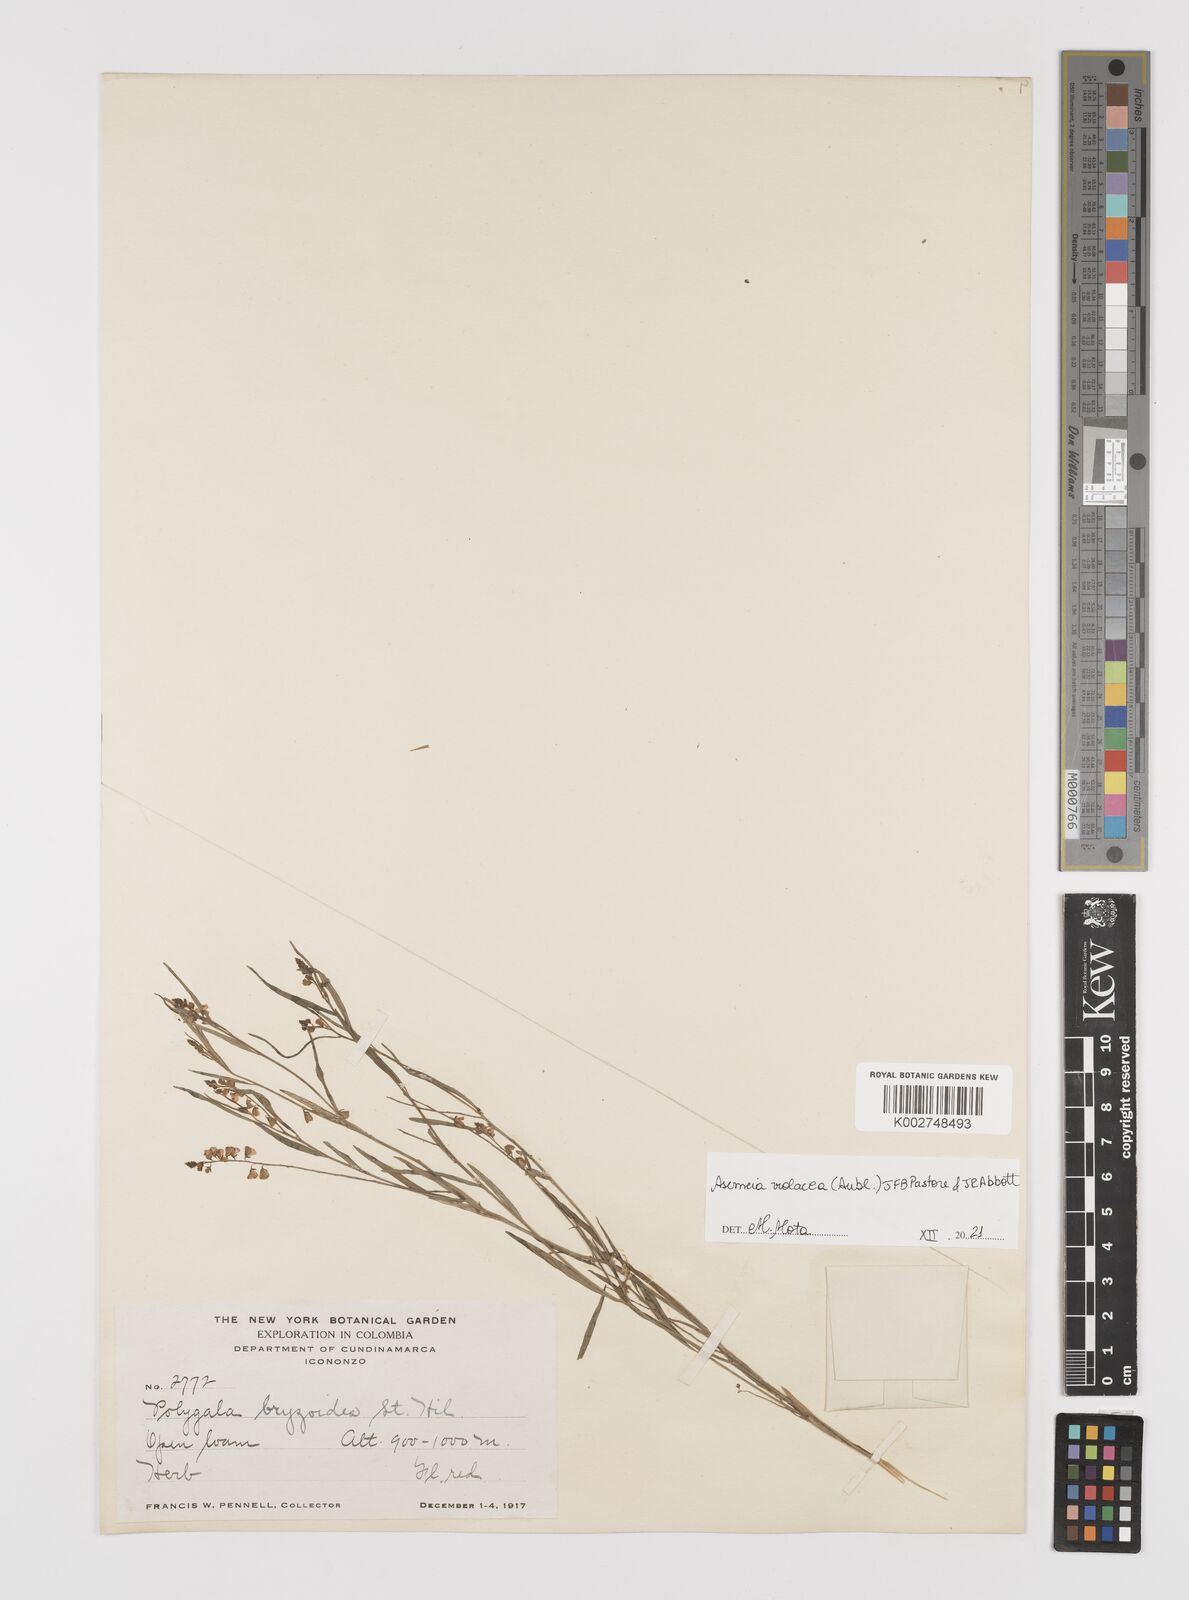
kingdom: Plantae
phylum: Tracheophyta
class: Magnoliopsida
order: Fabales
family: Polygalaceae
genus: Asemeia
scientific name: Asemeia violacea
